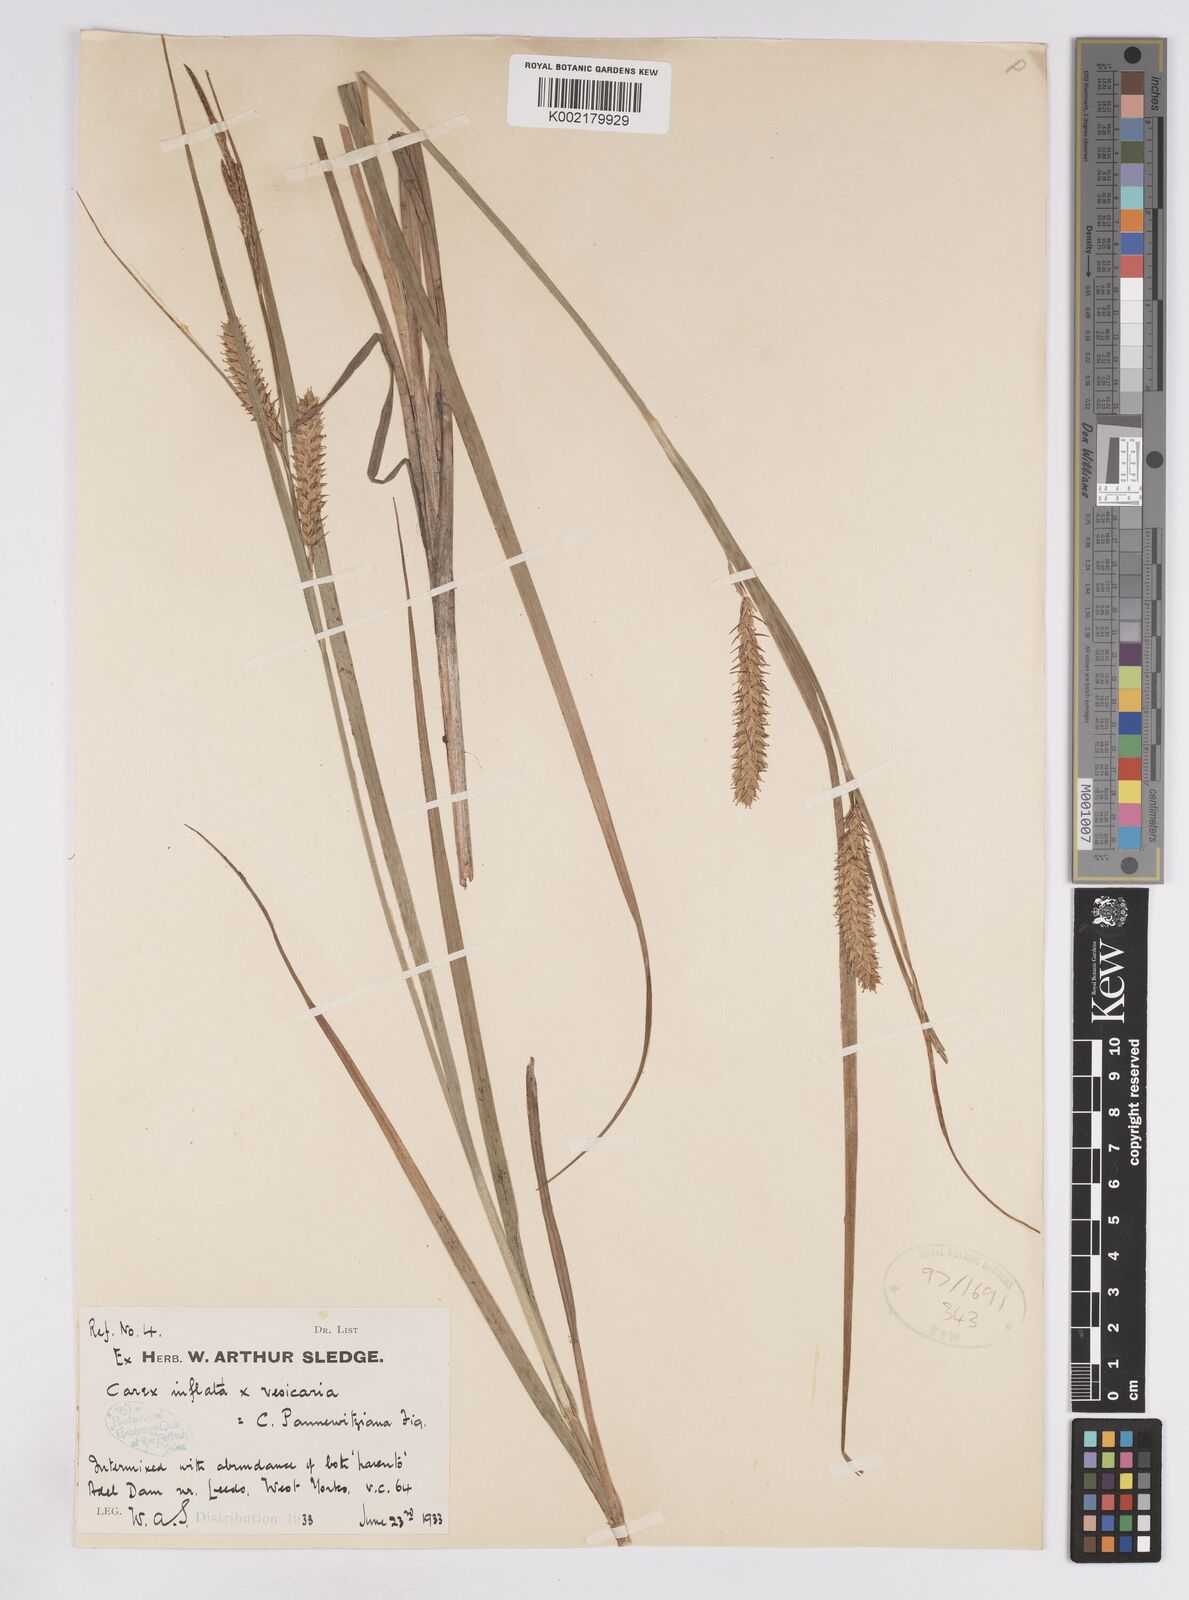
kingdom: Plantae
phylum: Tracheophyta
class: Liliopsida
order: Poales
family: Cyperaceae
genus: Carex
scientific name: Carex rostrata
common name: Bottle sedge
